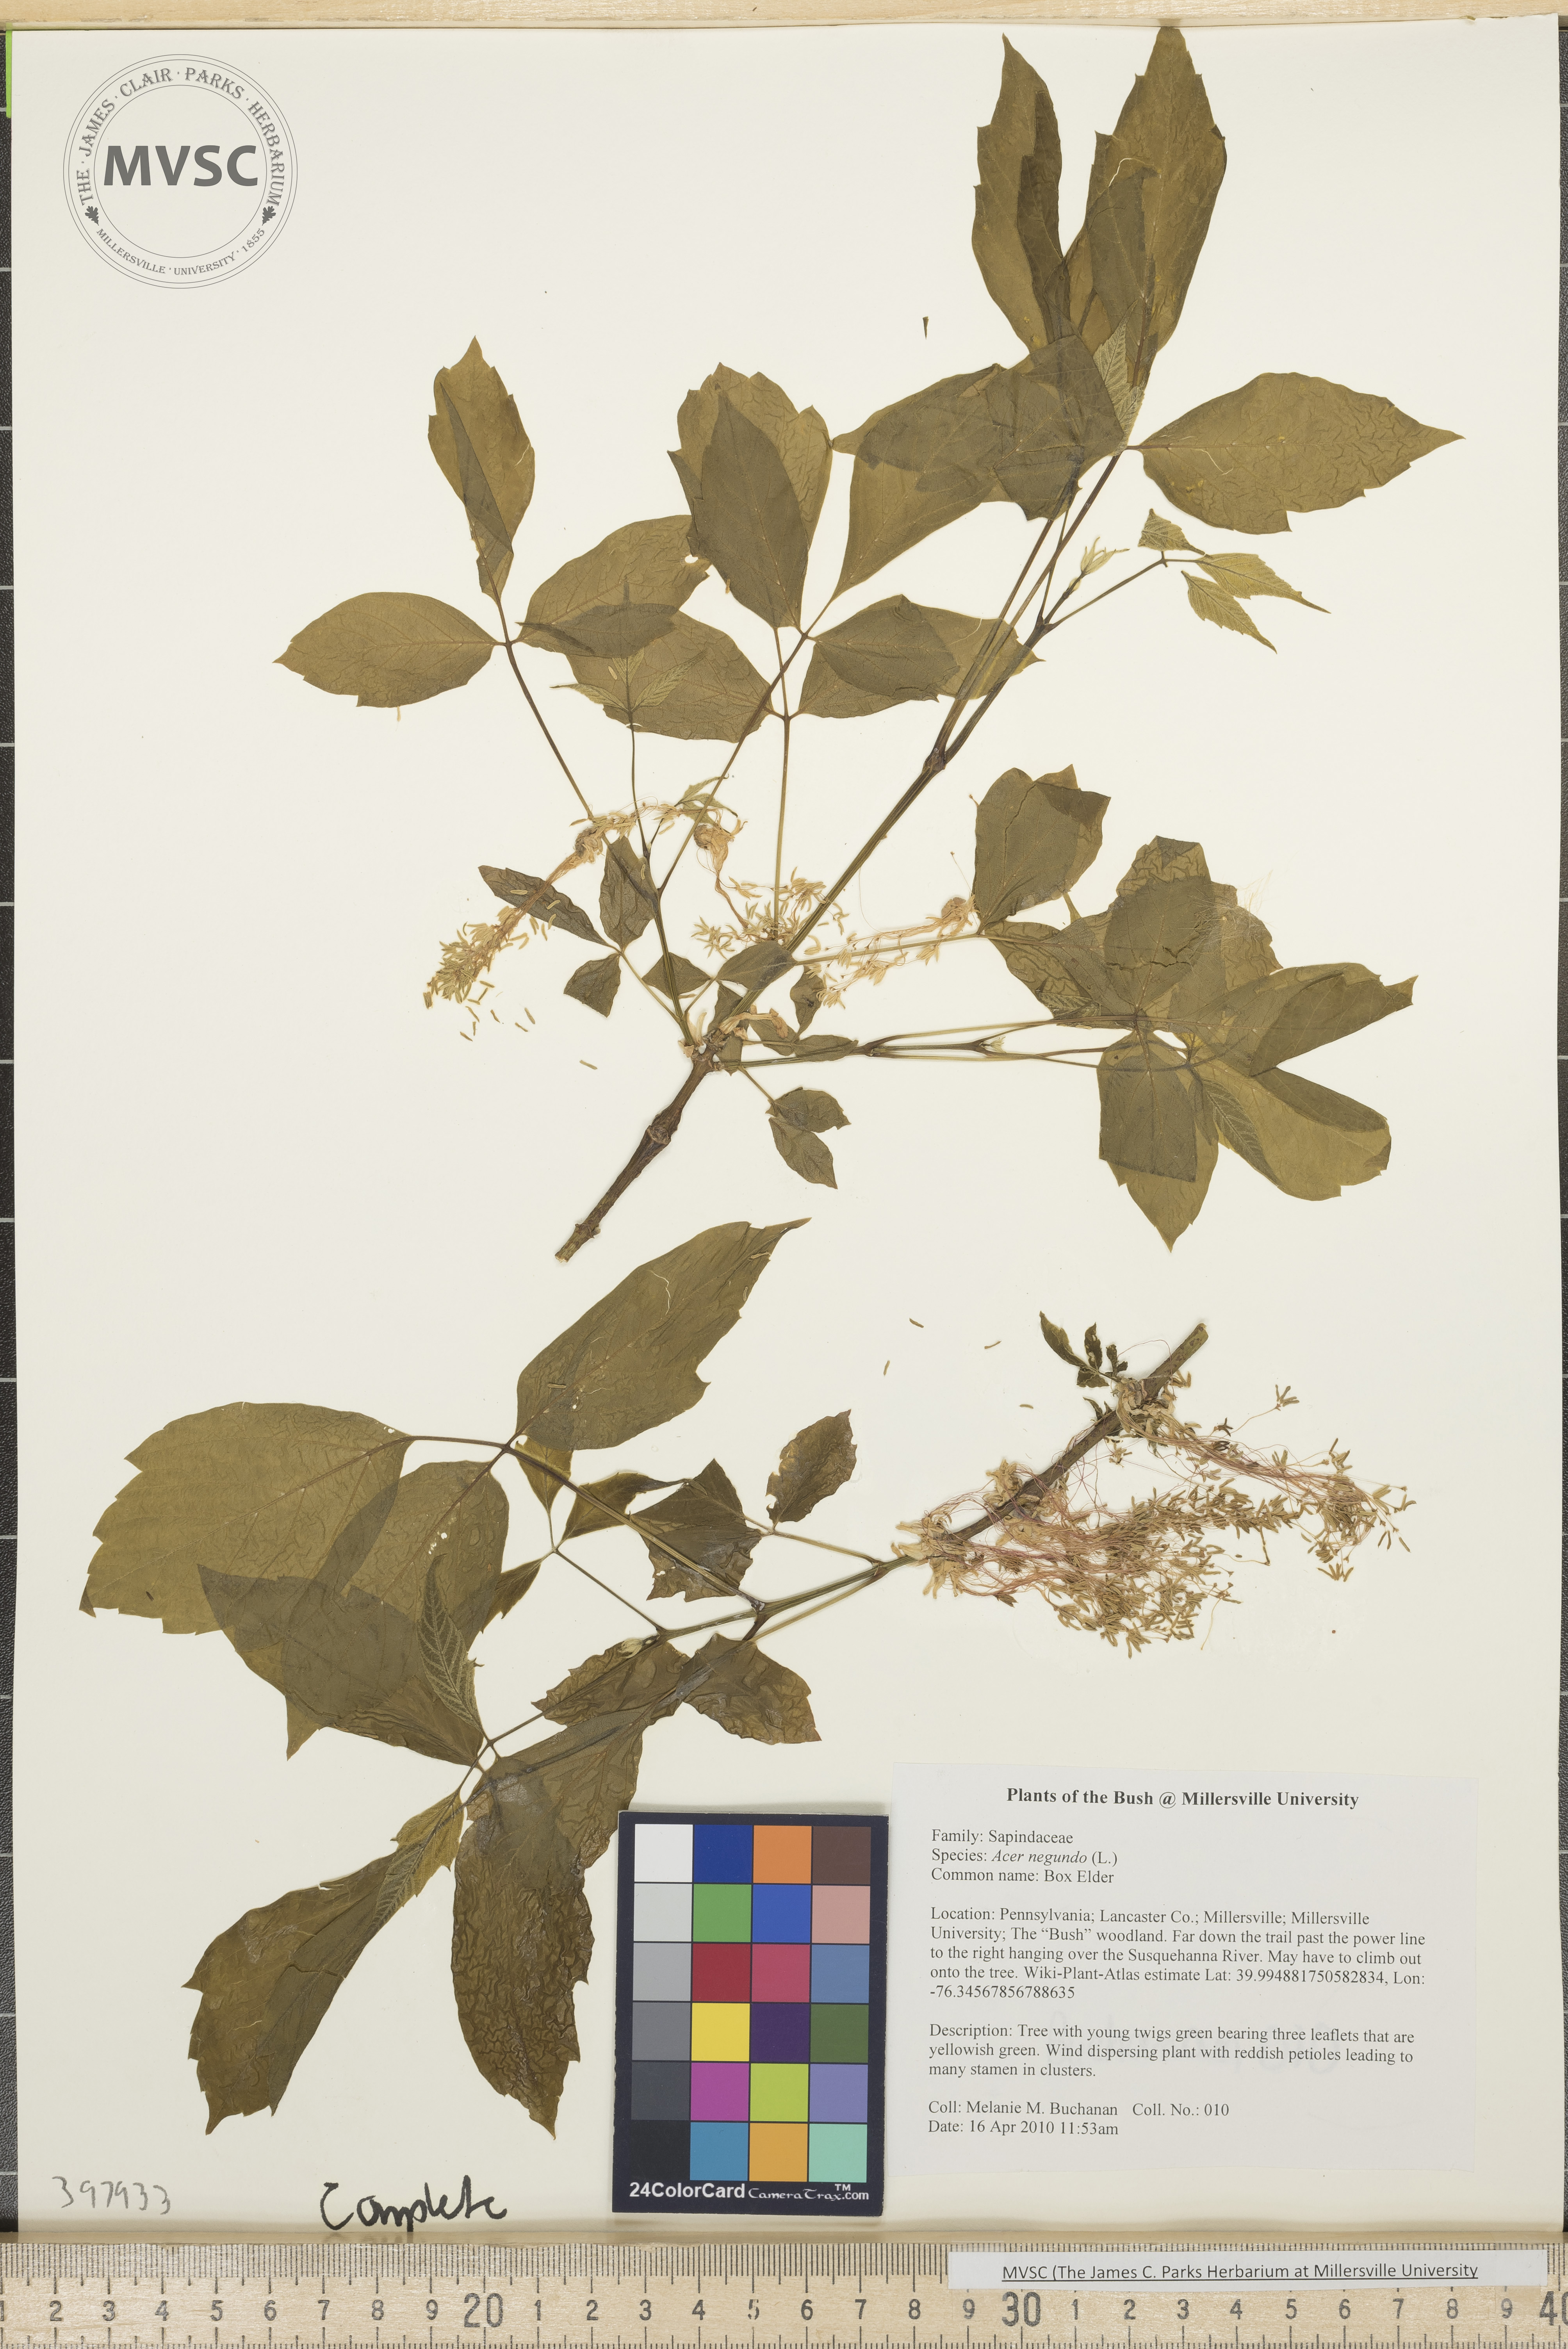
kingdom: Plantae
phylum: Tracheophyta
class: Magnoliopsida
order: Sapindales
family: Sapindaceae
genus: Acer
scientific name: Acer negundo
